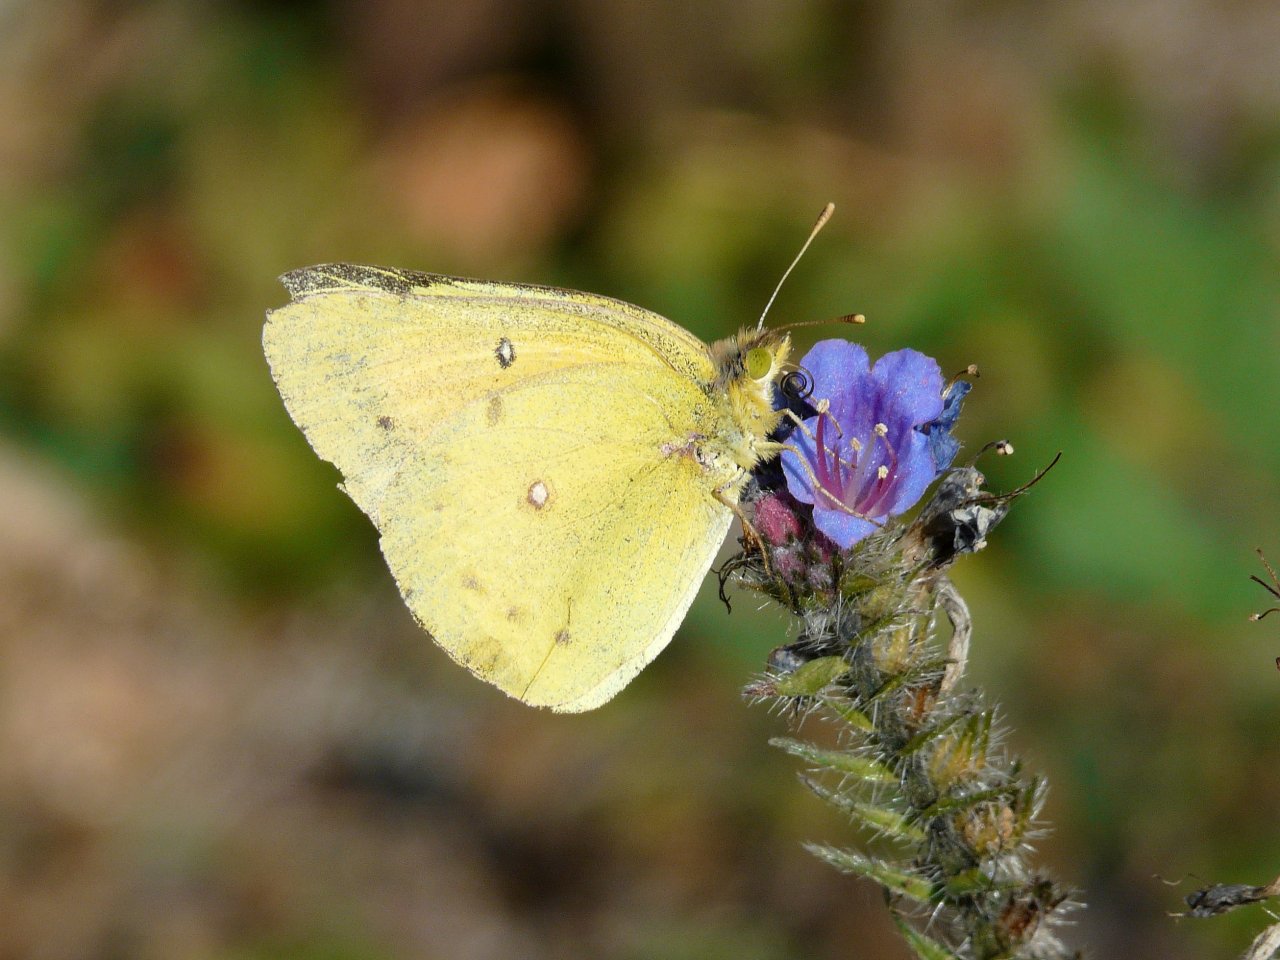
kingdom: Animalia
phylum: Arthropoda
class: Insecta
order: Lepidoptera
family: Pieridae
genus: Colias
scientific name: Colias eurytheme
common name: Orange Sulphur
